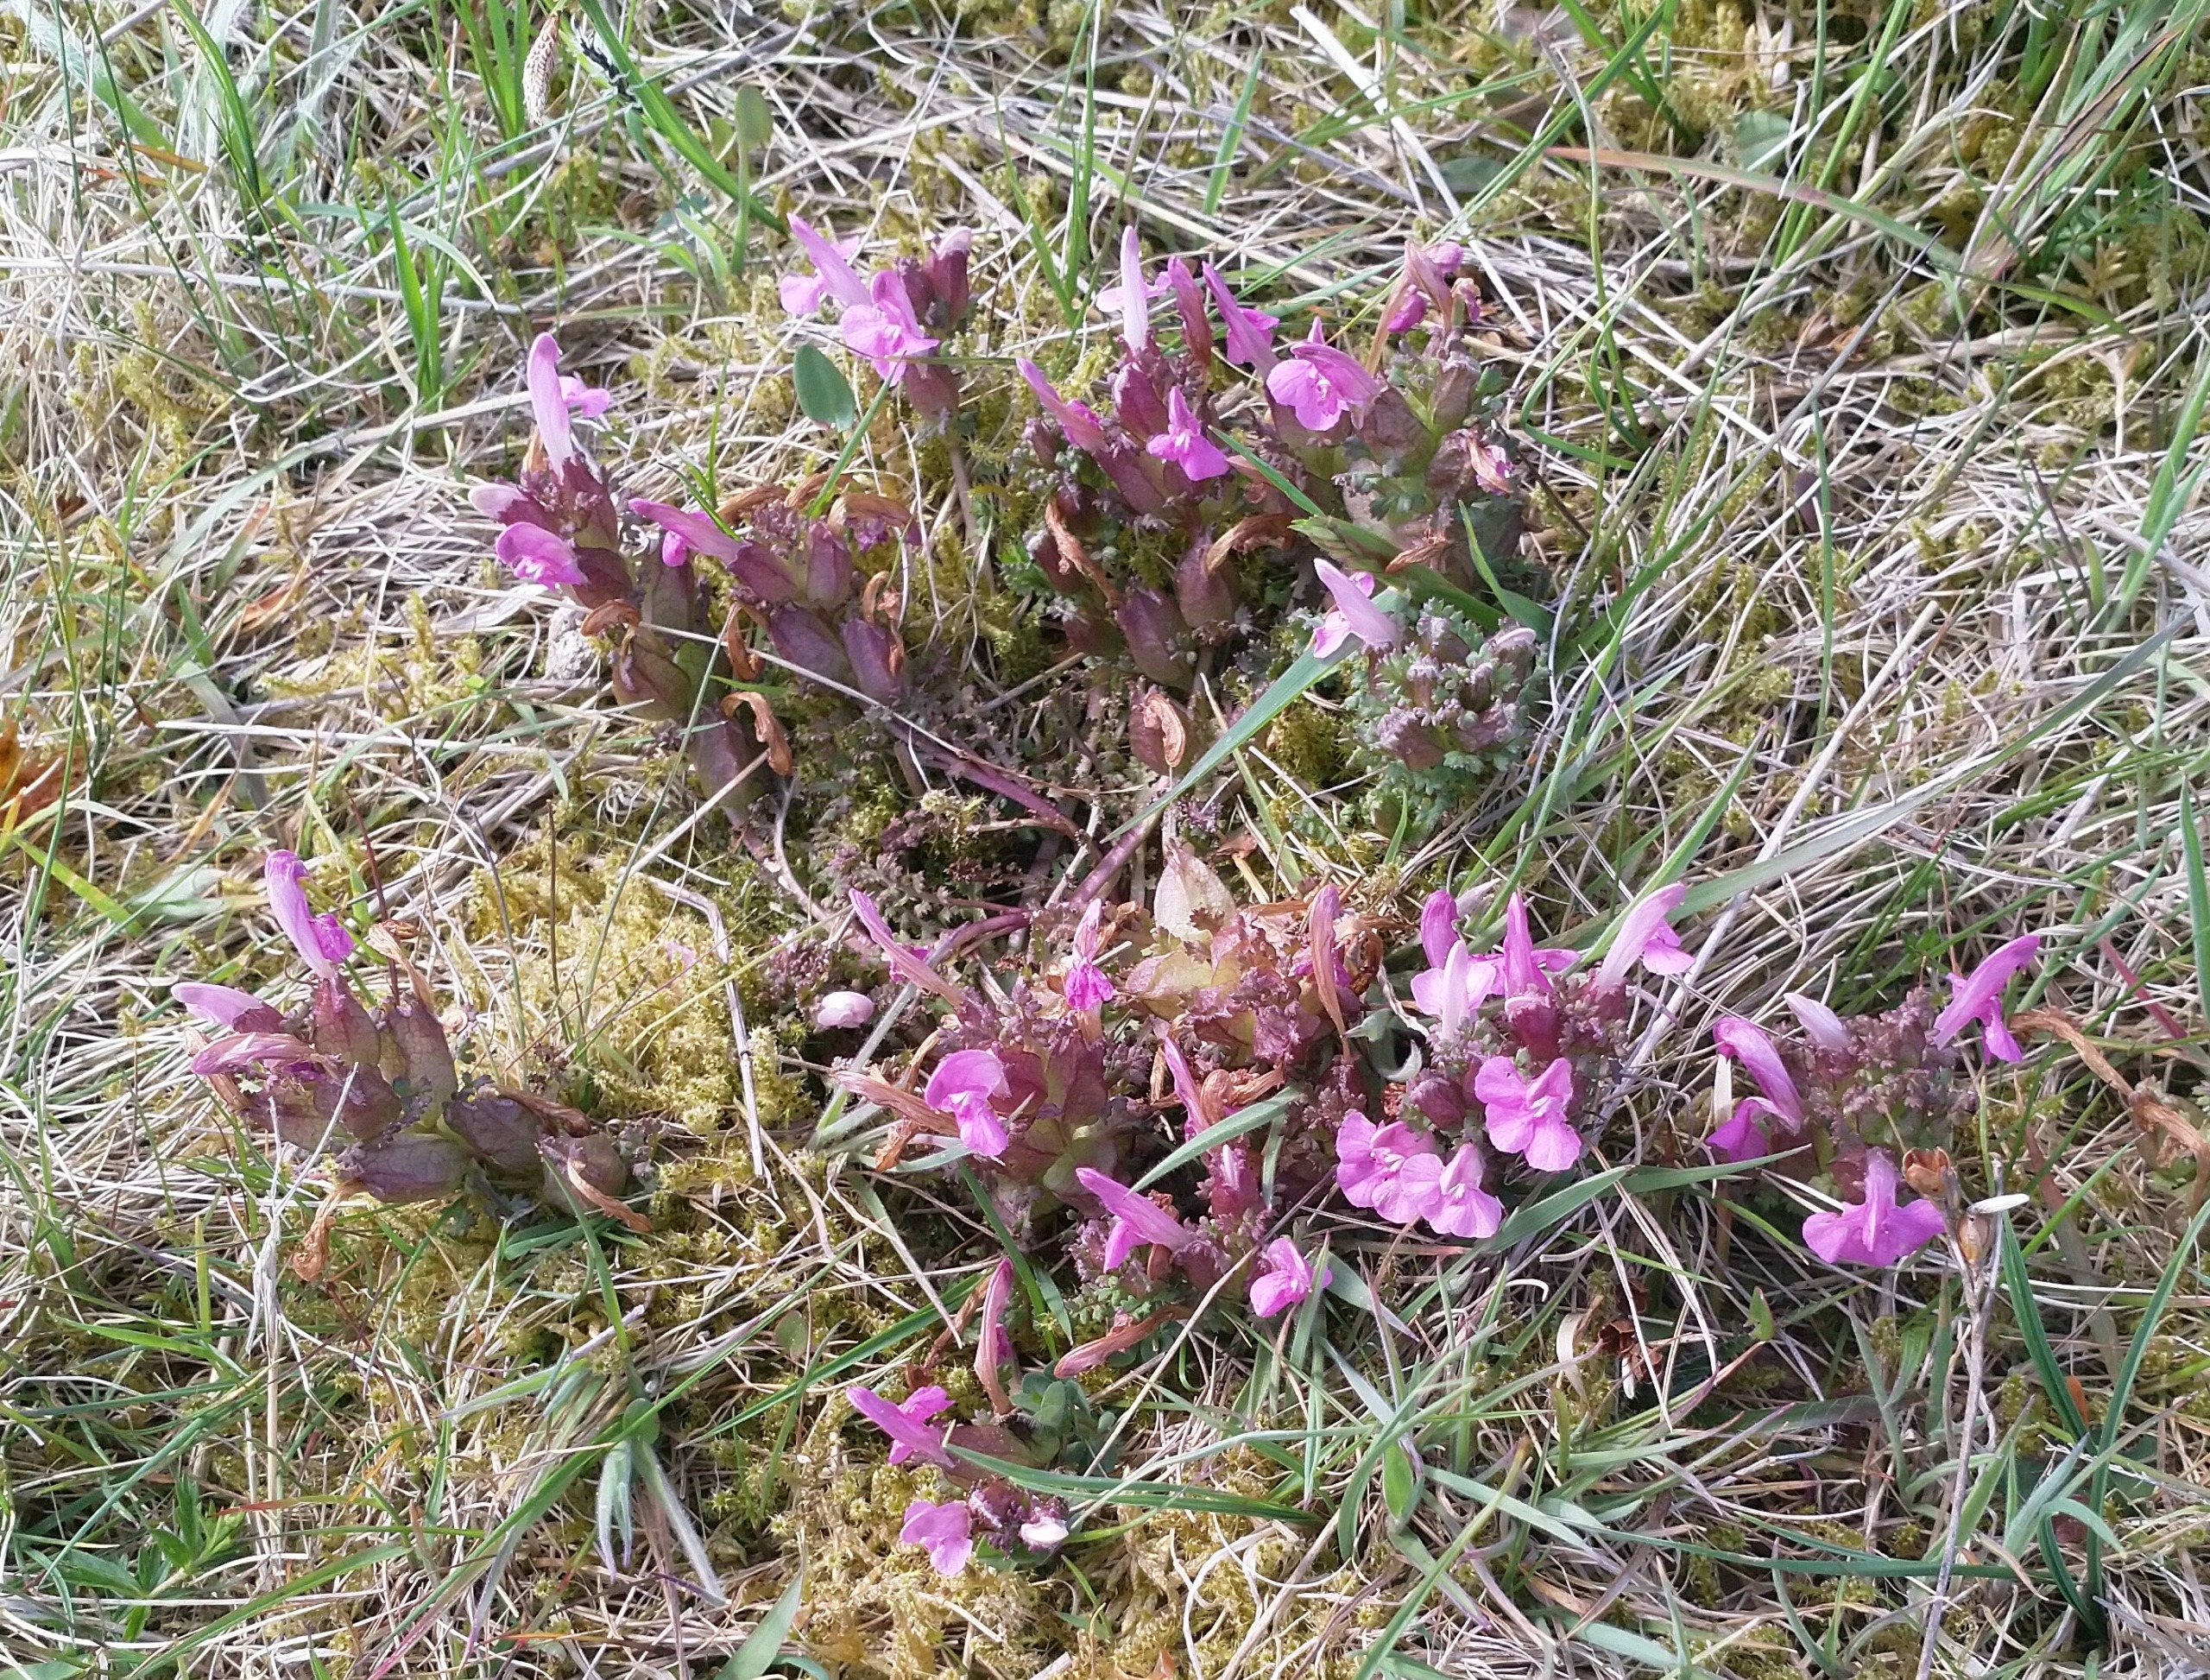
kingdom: Plantae
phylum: Tracheophyta
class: Magnoliopsida
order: Lamiales
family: Orobanchaceae
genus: Pedicularis
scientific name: Pedicularis sylvatica
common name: Mose-troldurt
